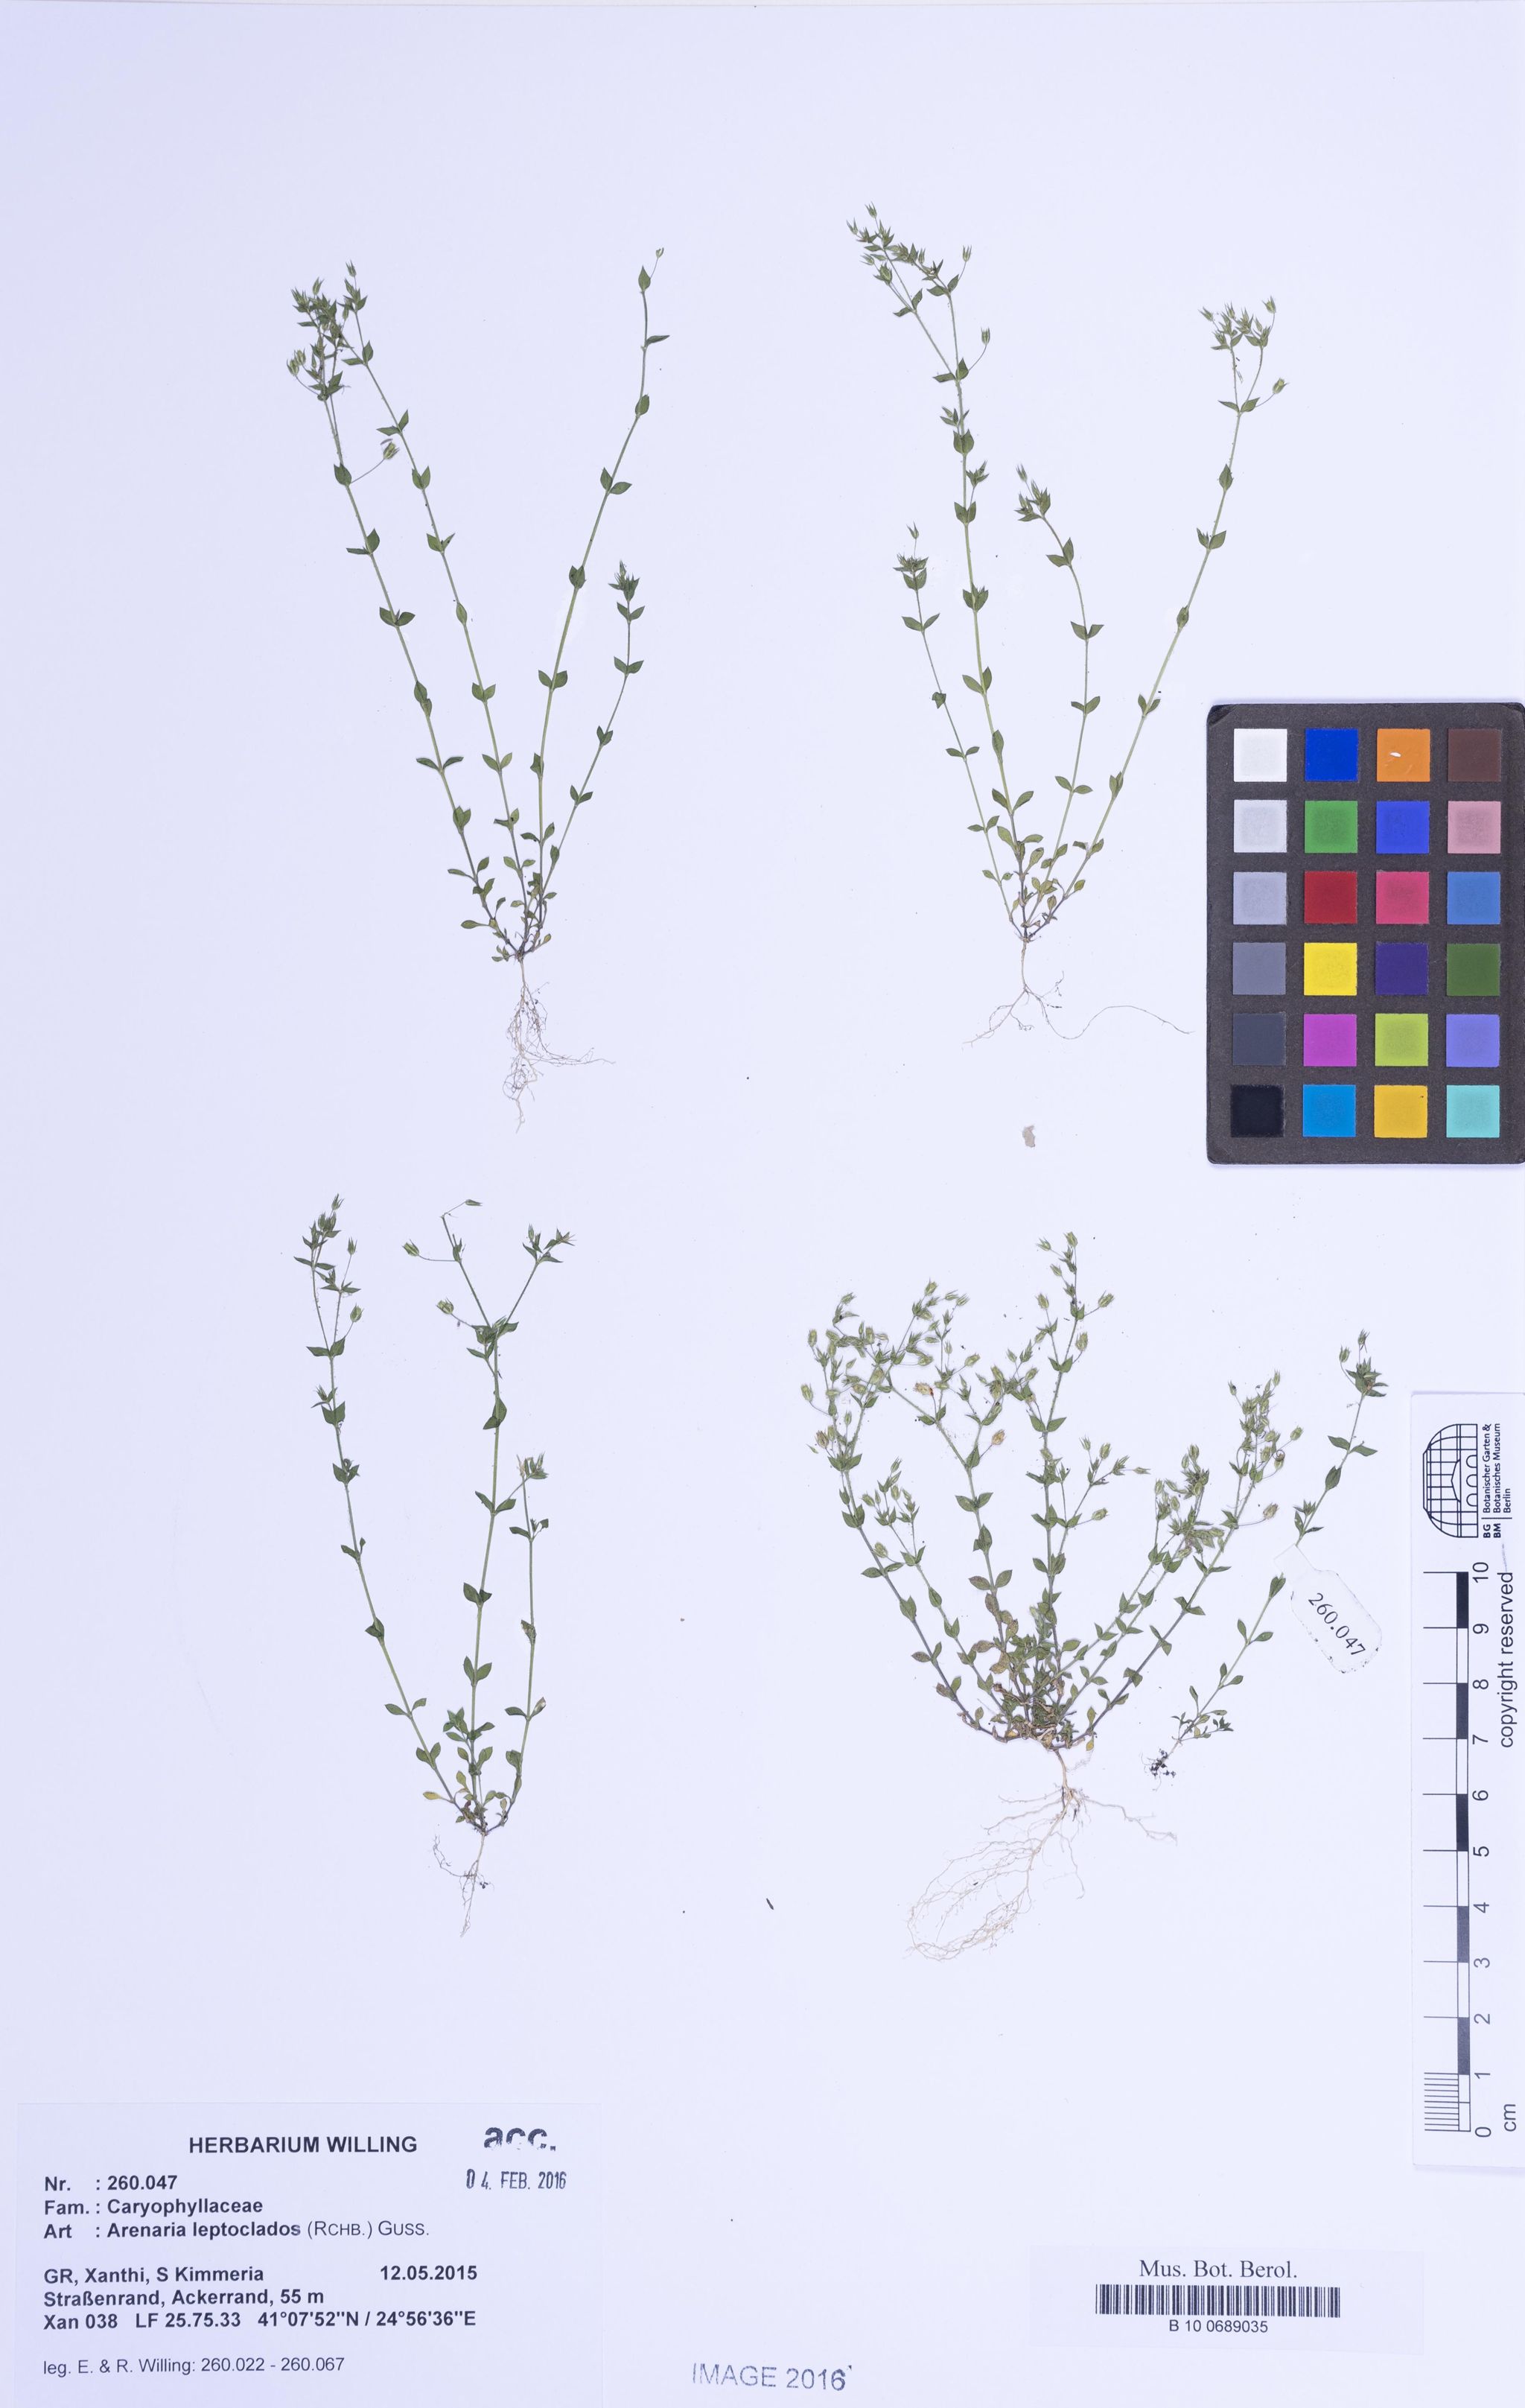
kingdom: Plantae
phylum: Tracheophyta
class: Magnoliopsida
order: Caryophyllales
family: Caryophyllaceae
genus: Arenaria
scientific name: Arenaria leptoclados
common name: Thyme-leaved sandwort
